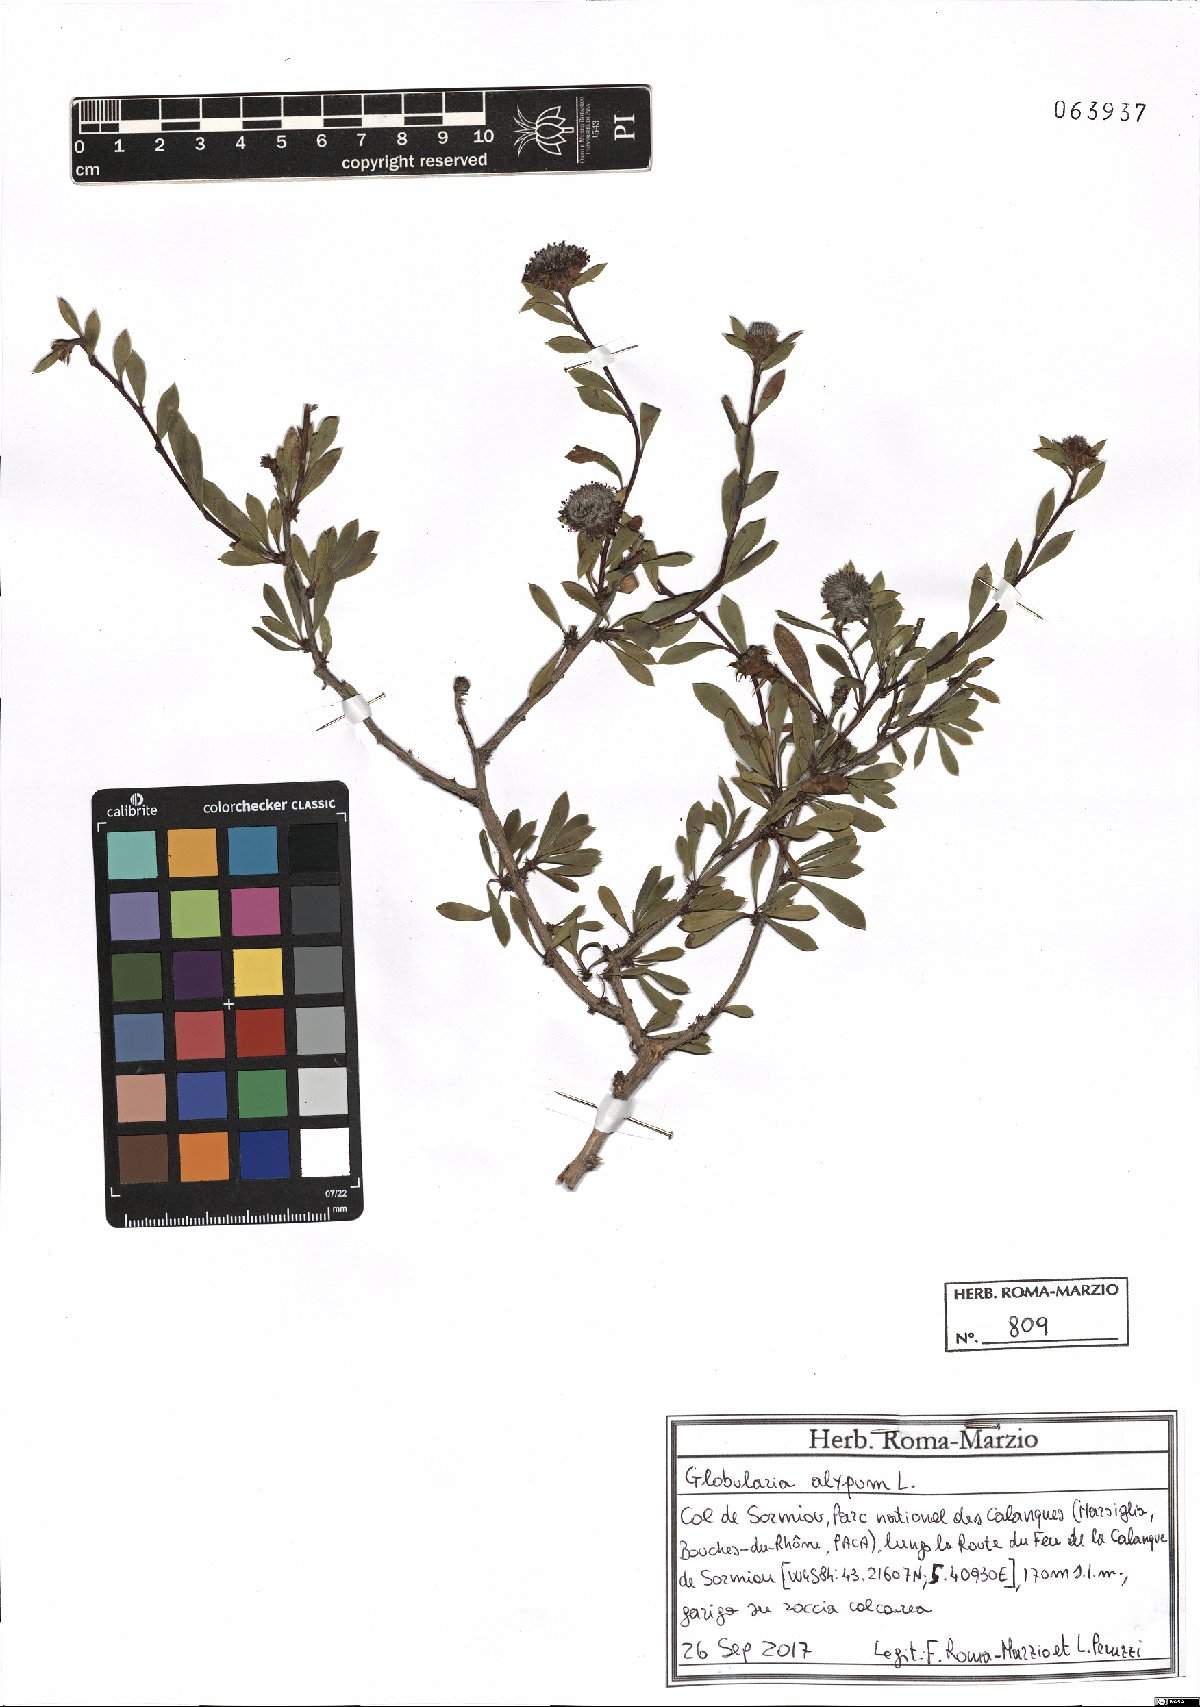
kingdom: Plantae
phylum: Tracheophyta
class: Magnoliopsida
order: Lamiales
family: Plantaginaceae
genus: Globularia
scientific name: Globularia alypum
